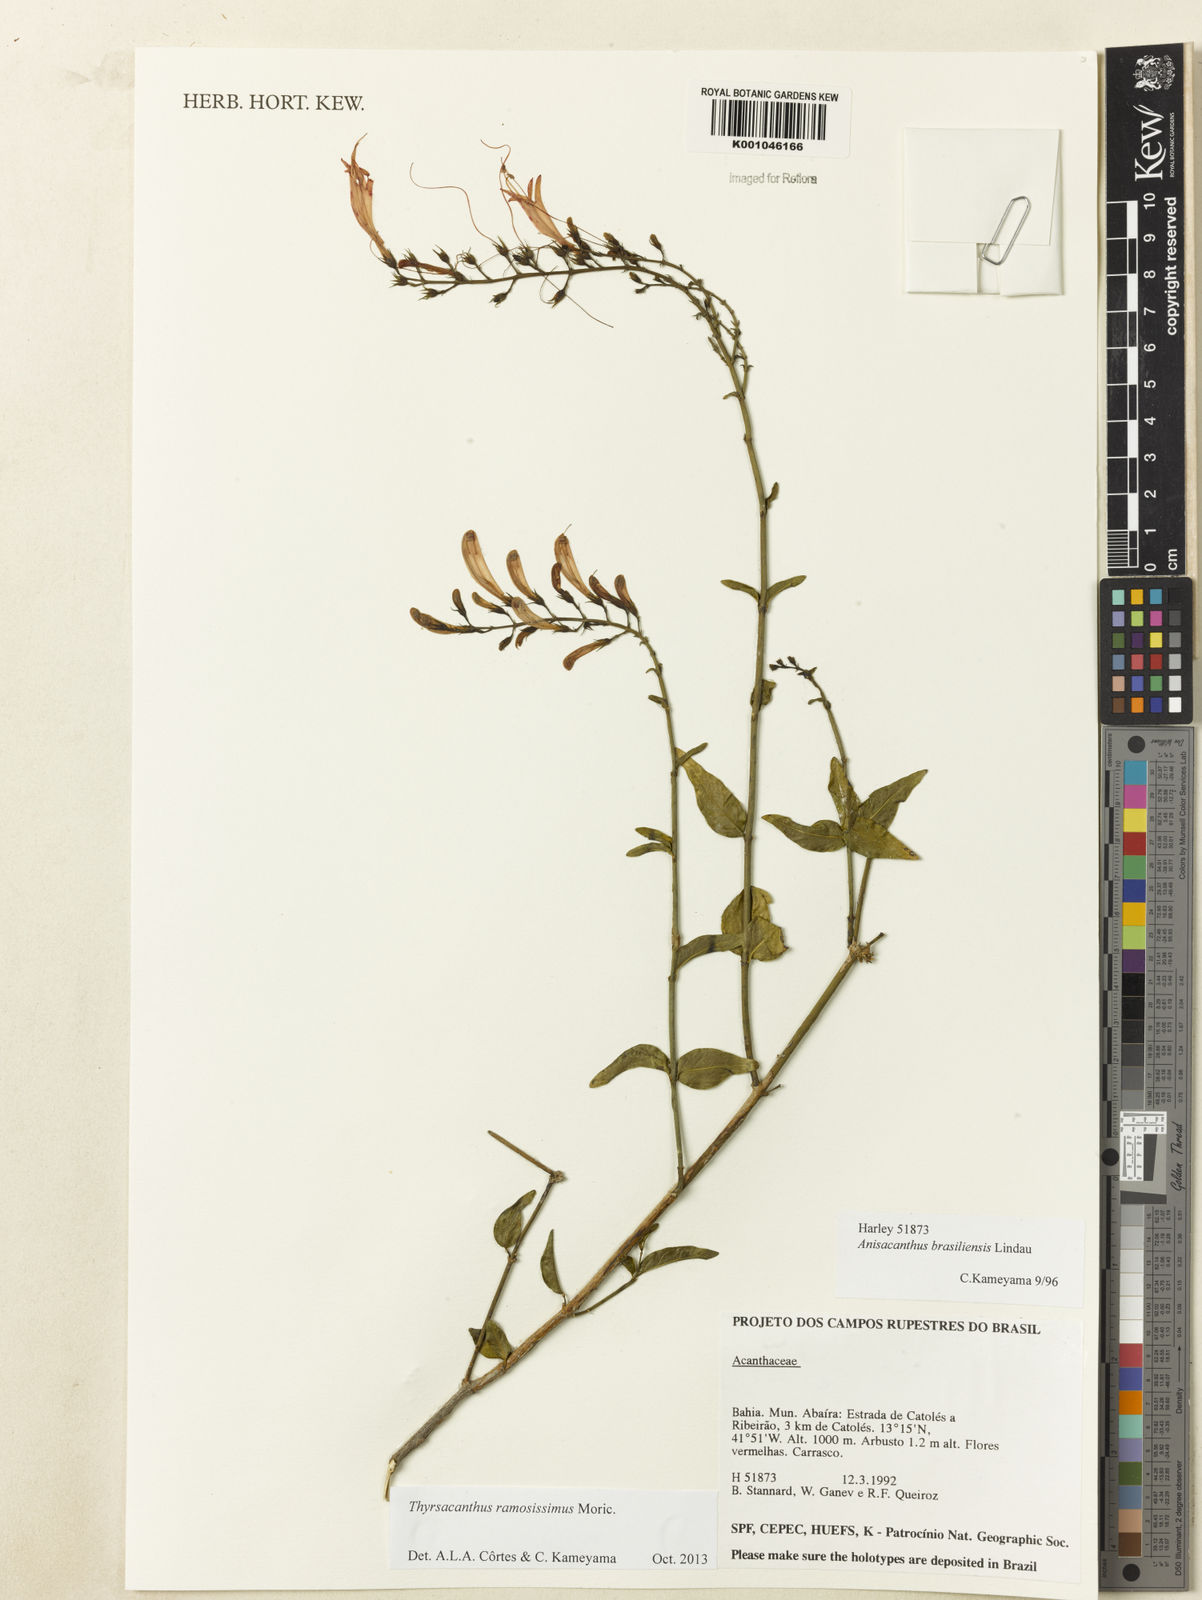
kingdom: Plantae
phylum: Tracheophyta
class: Magnoliopsida
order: Lamiales
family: Acanthaceae
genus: Thyrsacanthus
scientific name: Thyrsacanthus ramosissimus
